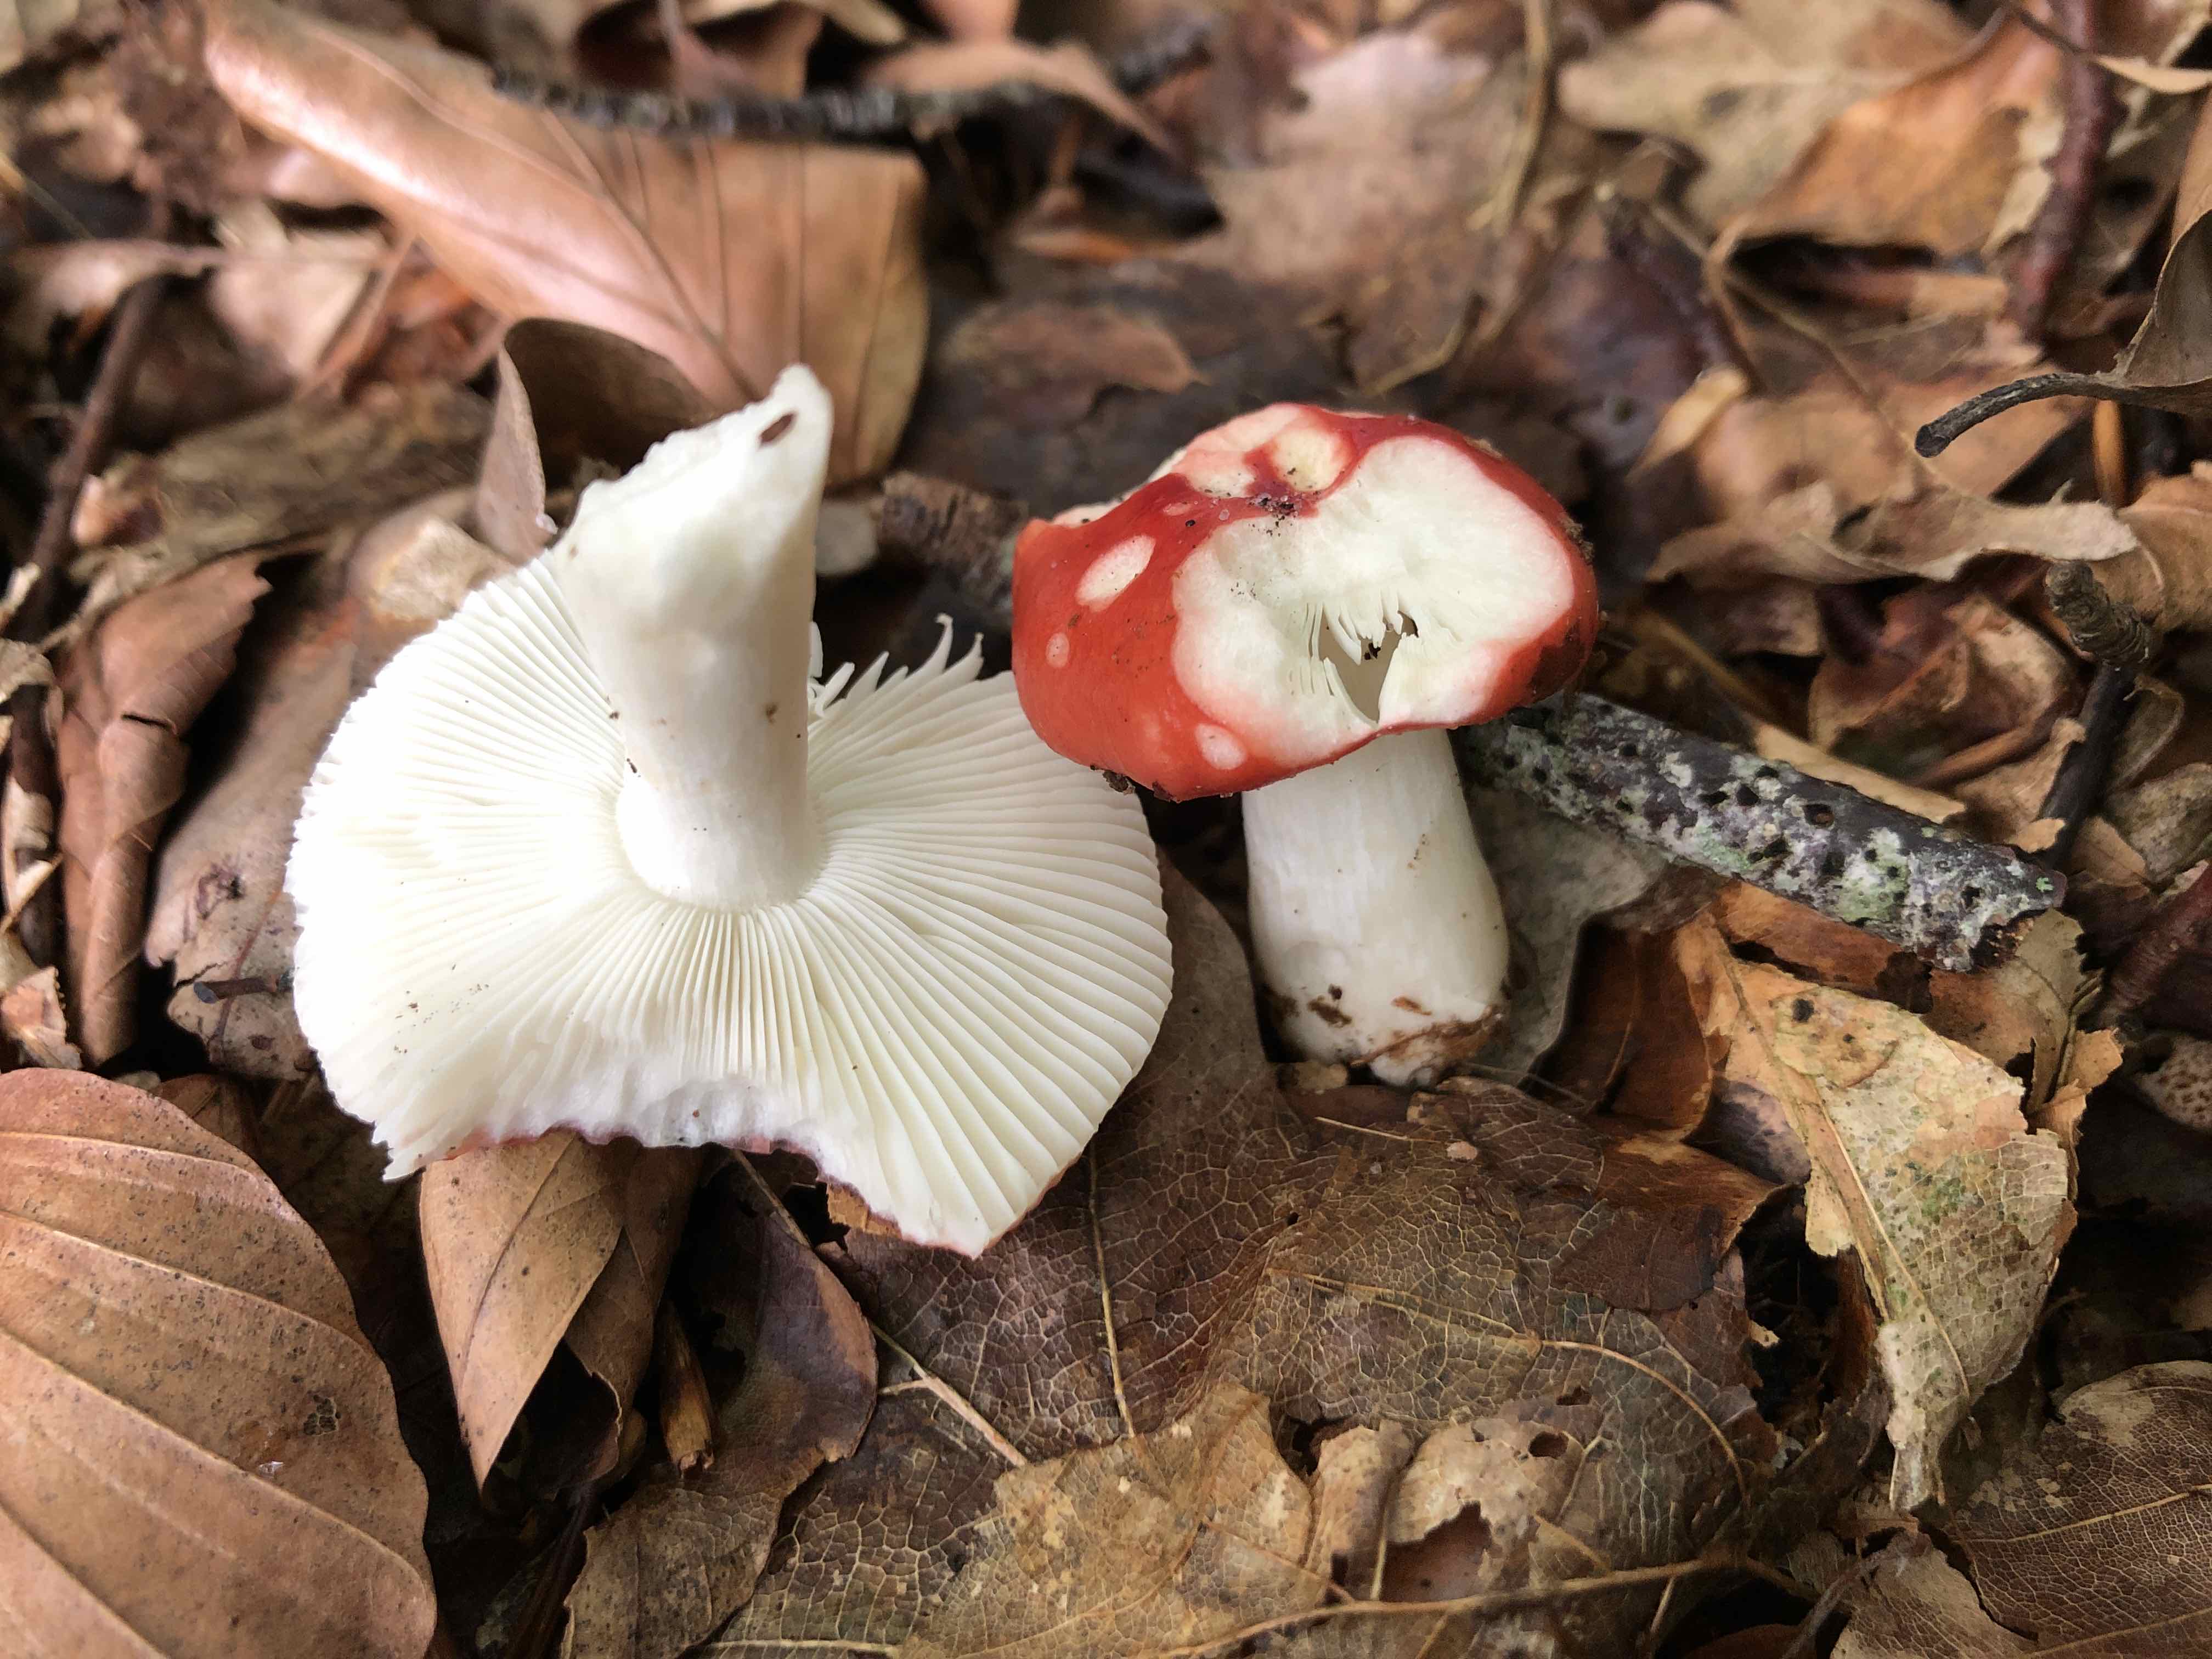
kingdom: Fungi
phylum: Basidiomycota
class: Agaricomycetes
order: Russulales
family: Russulaceae
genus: Russula
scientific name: Russula nobilis
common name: lille gift-skørhat
